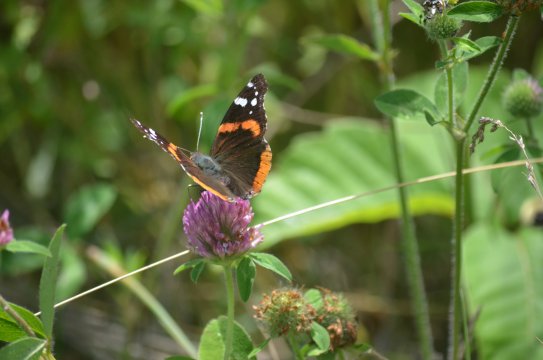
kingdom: Animalia
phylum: Arthropoda
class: Insecta
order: Lepidoptera
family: Nymphalidae
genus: Vanessa
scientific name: Vanessa atalanta
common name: Red Admiral
